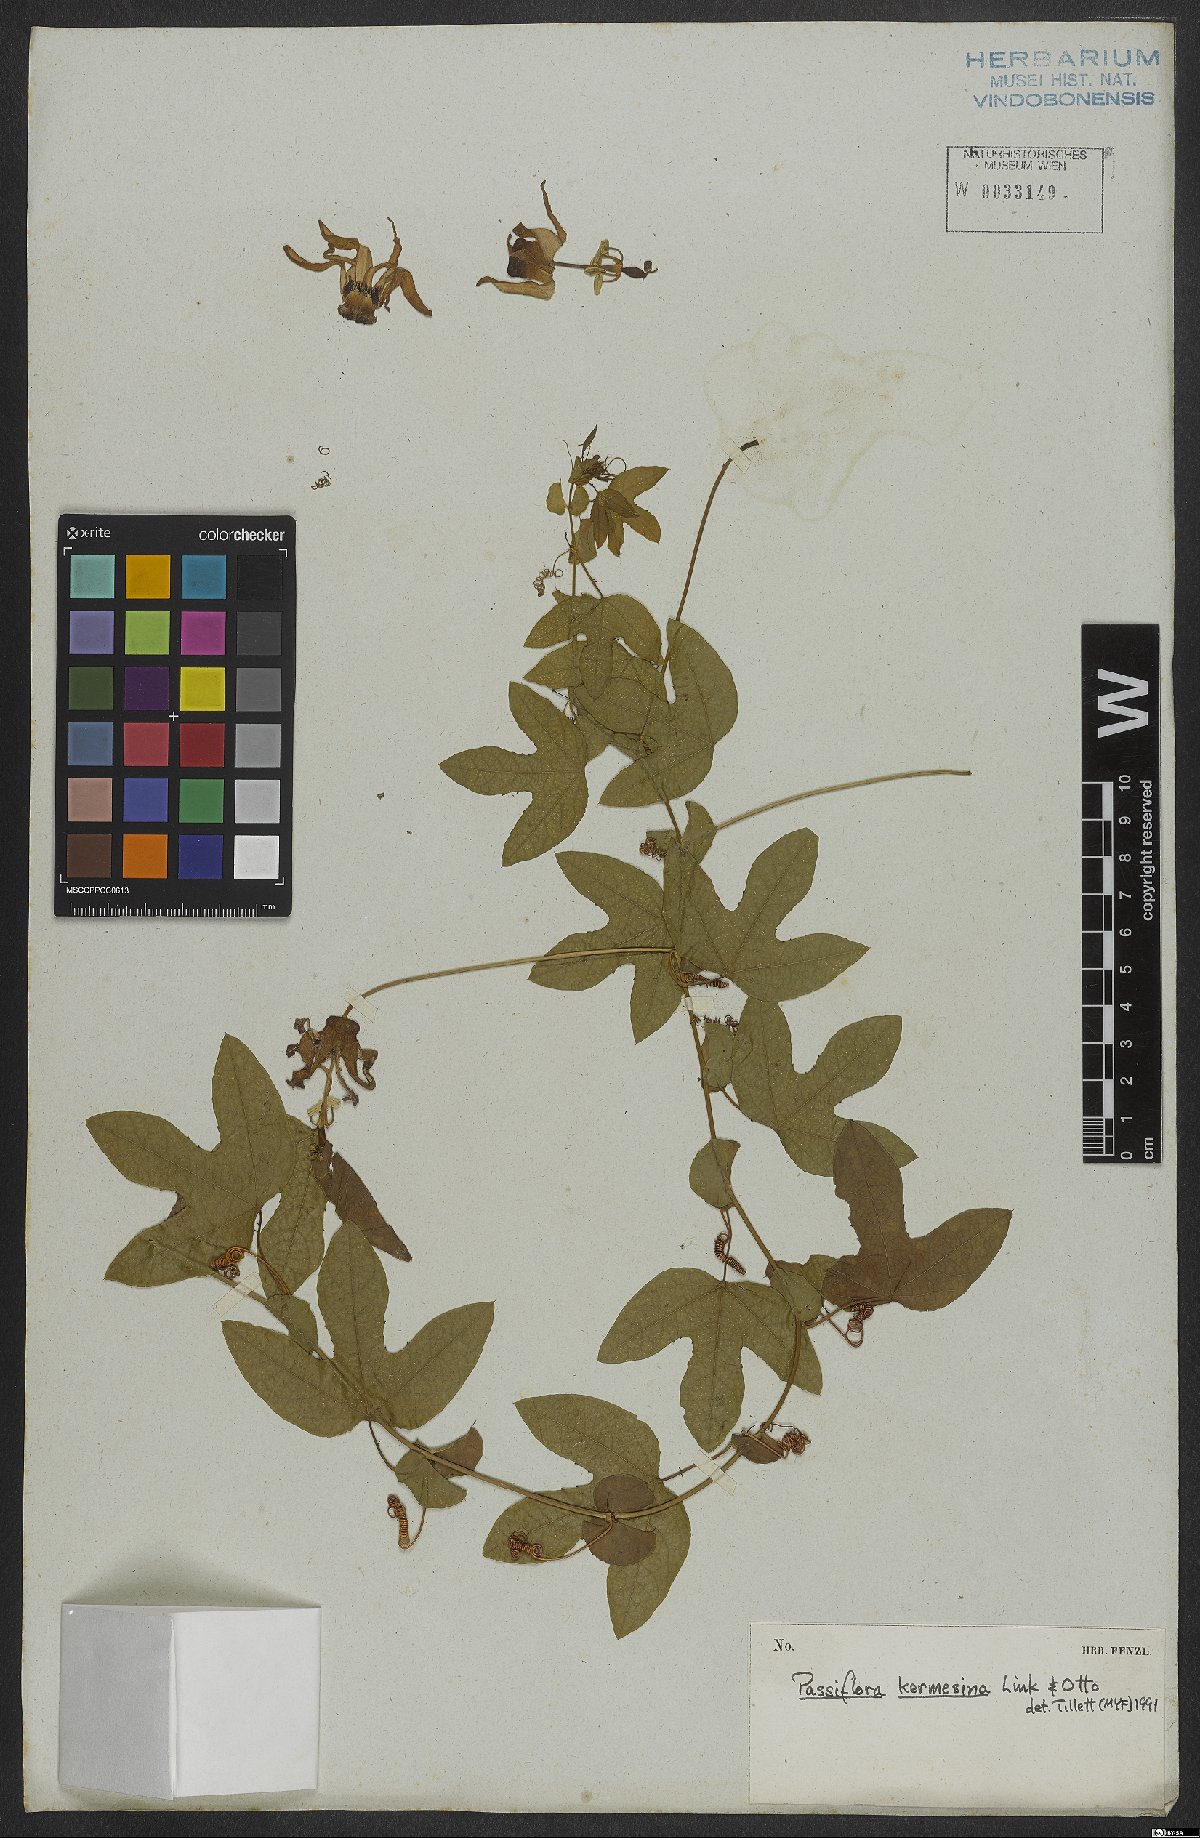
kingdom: Plantae
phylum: Tracheophyta
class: Magnoliopsida
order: Malpighiales
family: Passifloraceae
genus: Passiflora
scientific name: Passiflora kermesina
